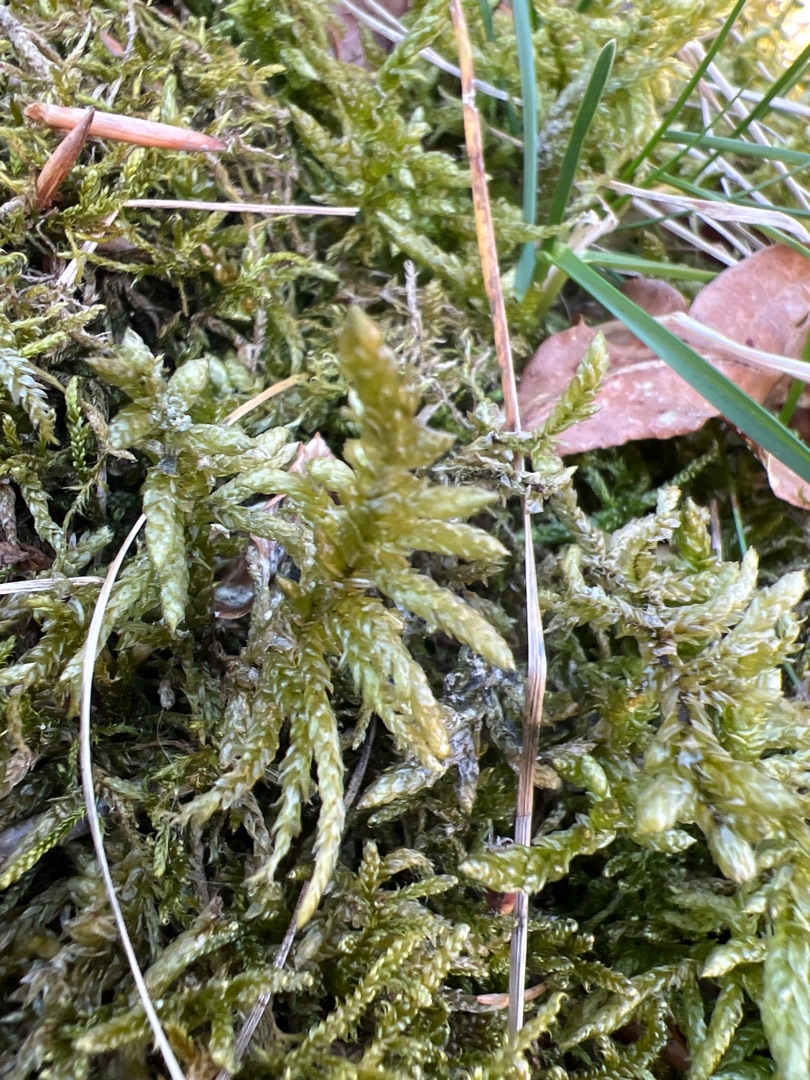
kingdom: Plantae
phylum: Bryophyta
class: Bryopsida
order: Hypnales
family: Brachytheciaceae
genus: Pseudoscleropodium
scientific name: Pseudoscleropodium purum
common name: Hulbladet fedtmos
